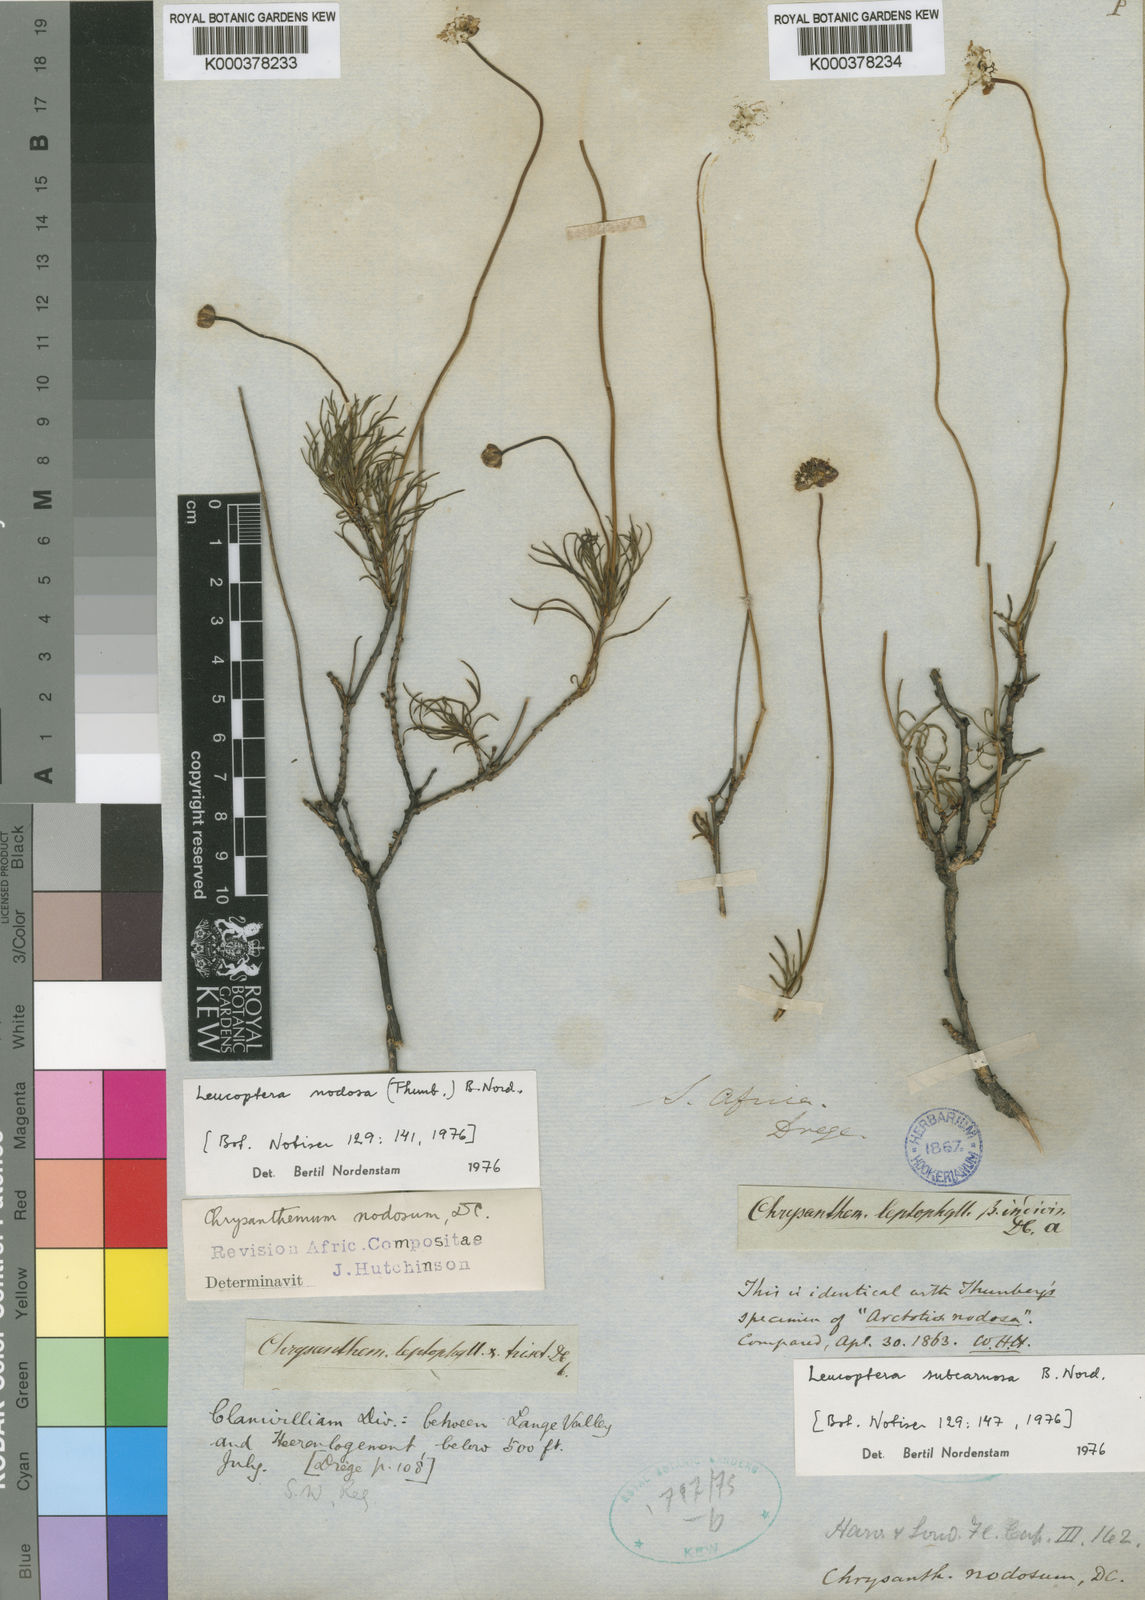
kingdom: Plantae
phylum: Tracheophyta
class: Magnoliopsida
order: Asterales
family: Asteraceae
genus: Leucoptera
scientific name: Leucoptera nodosa
